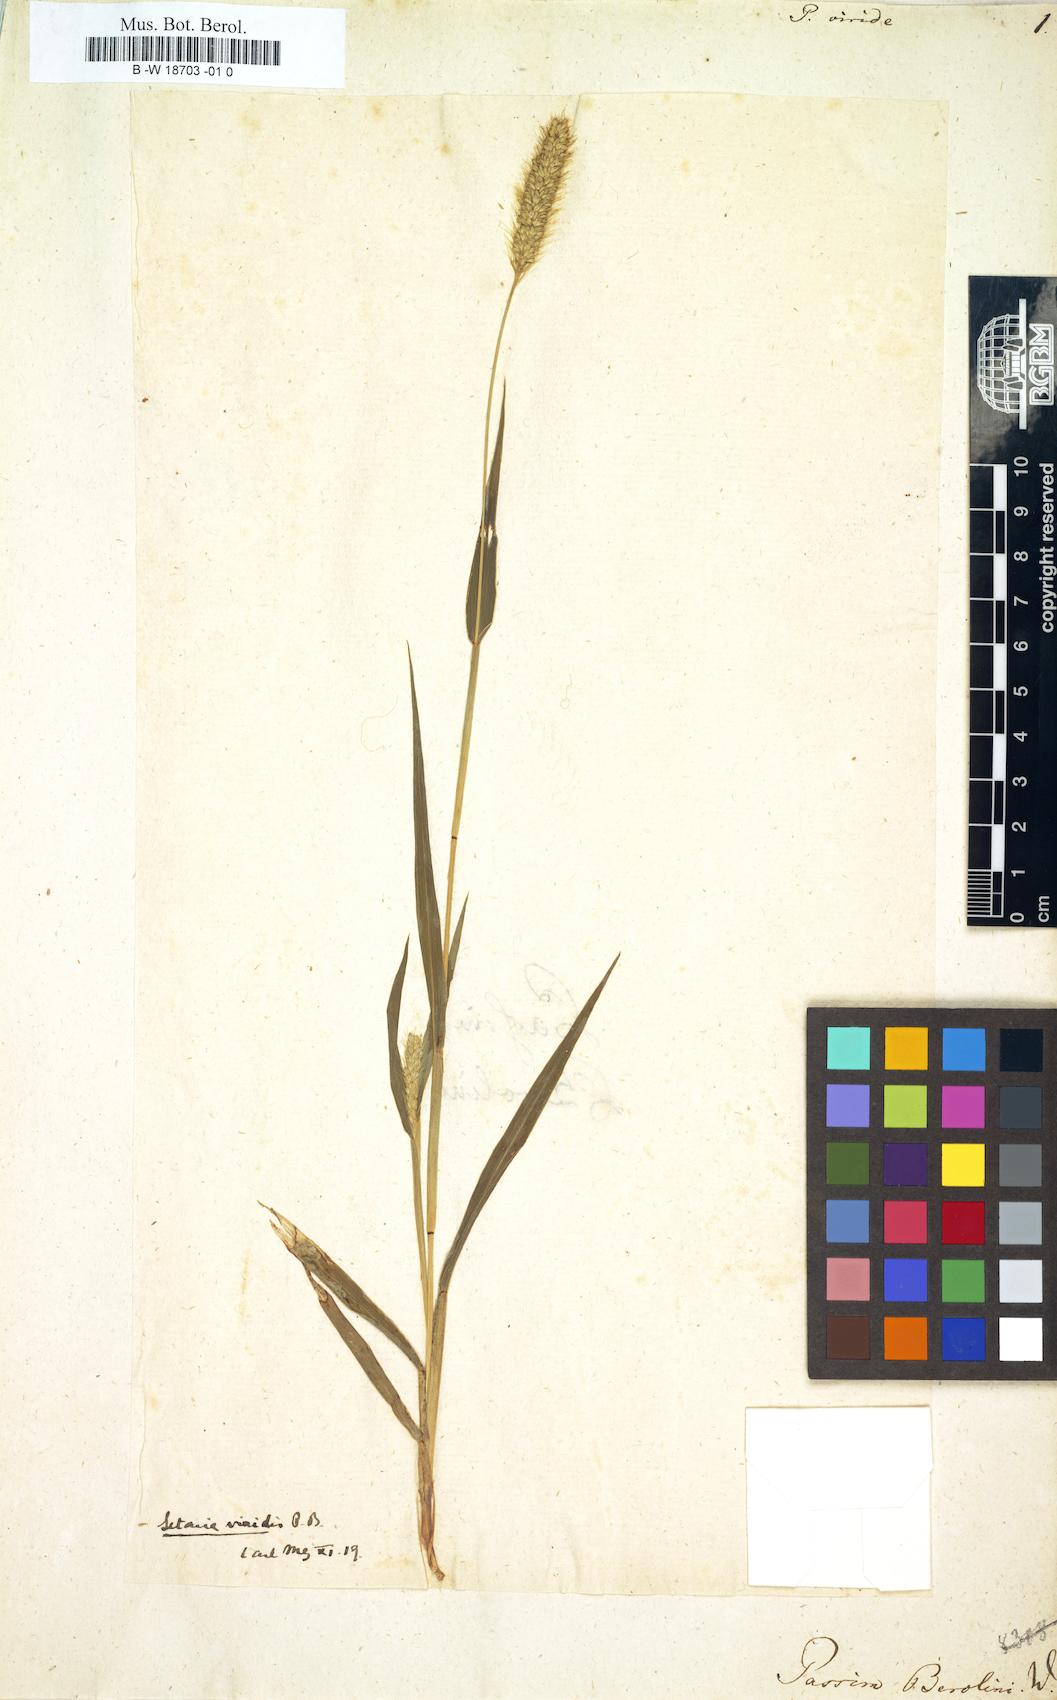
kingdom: Plantae
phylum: Tracheophyta
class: Liliopsida
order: Poales
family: Poaceae
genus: Setaria
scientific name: Setaria viridis
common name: Green bristlegrass
